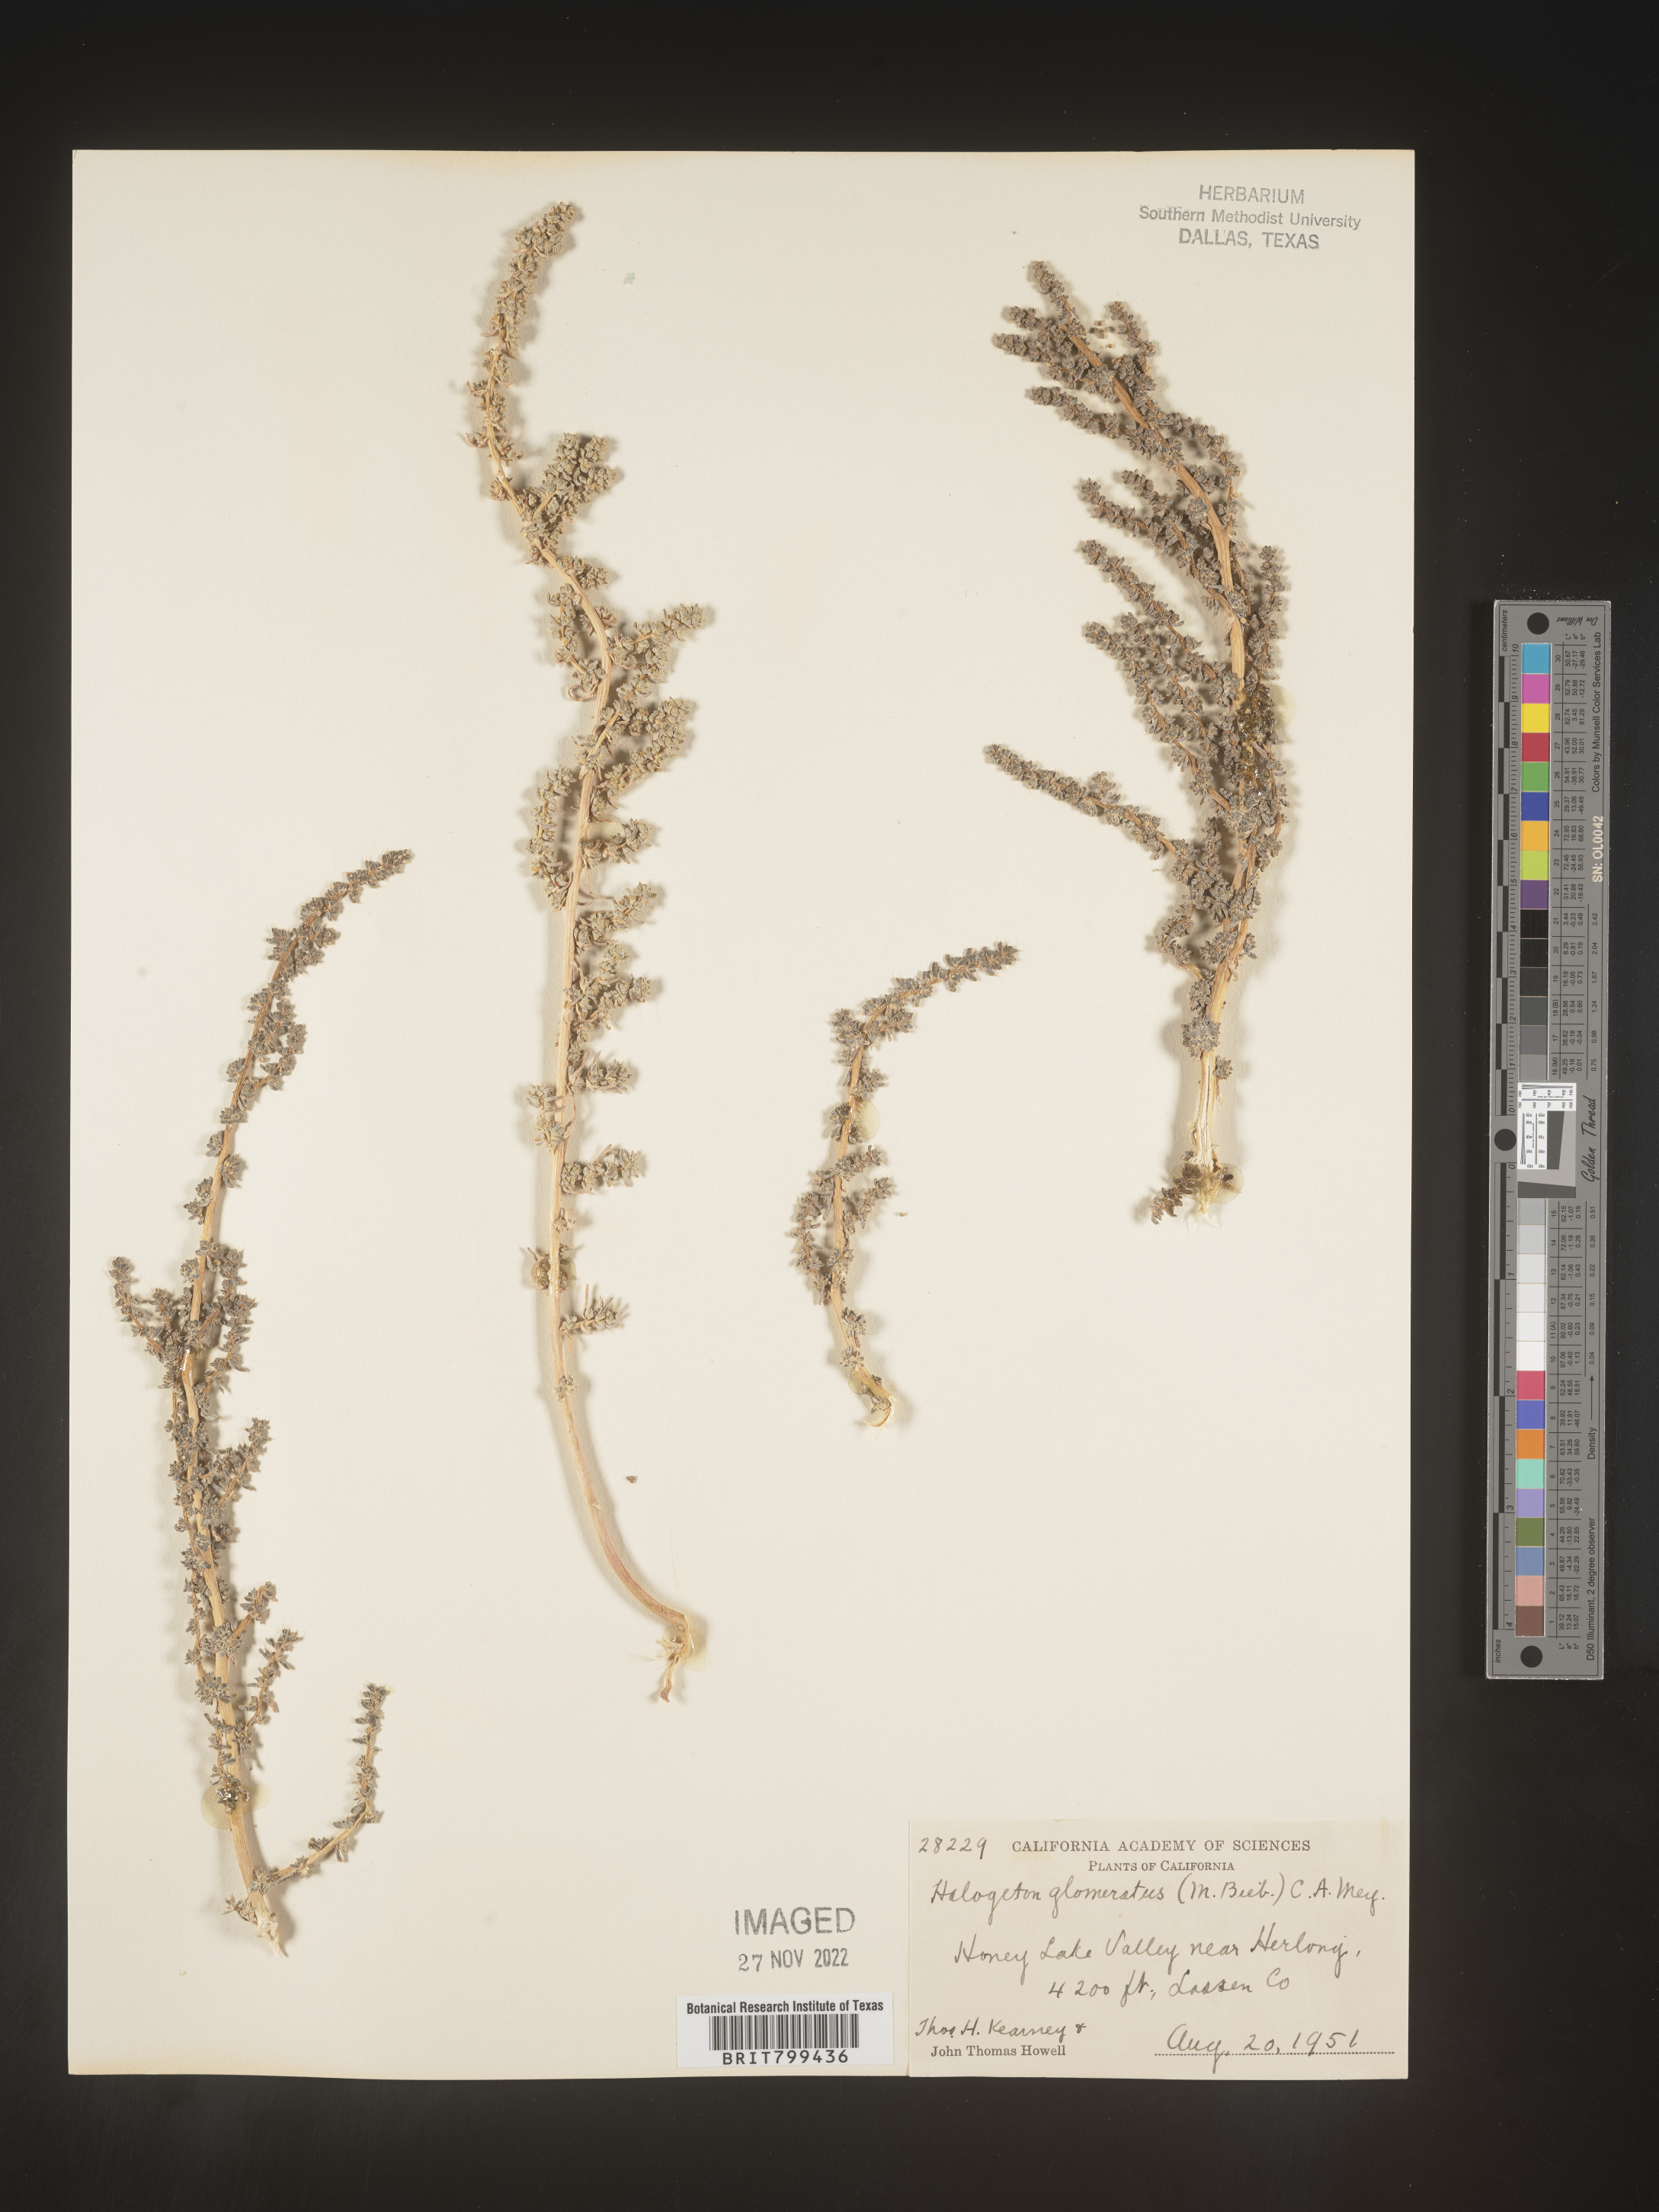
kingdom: Plantae
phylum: Tracheophyta
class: Magnoliopsida
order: Caryophyllales
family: Amaranthaceae
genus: Halogeton
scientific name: Halogeton glomeratus
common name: Saltlover
